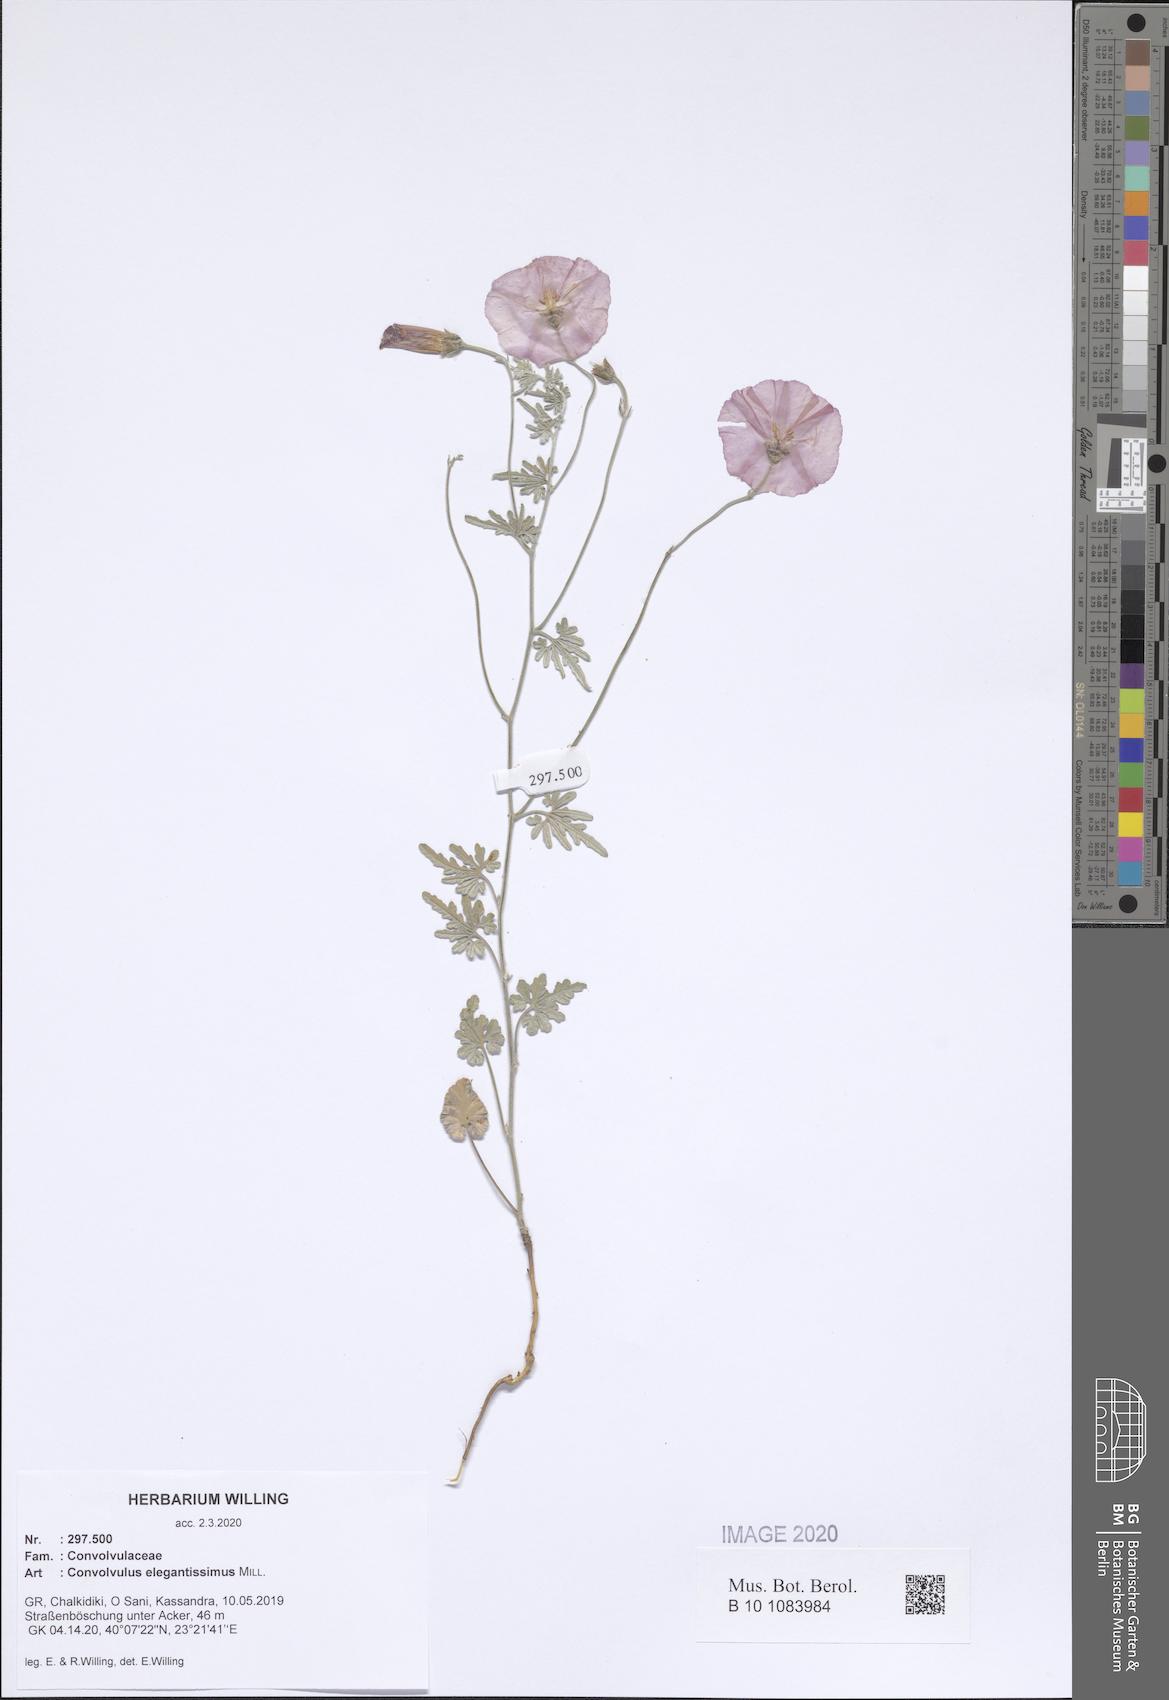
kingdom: Plantae
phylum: Tracheophyta
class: Magnoliopsida
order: Solanales
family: Convolvulaceae
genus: Convolvulus
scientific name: Convolvulus elegantissimus
